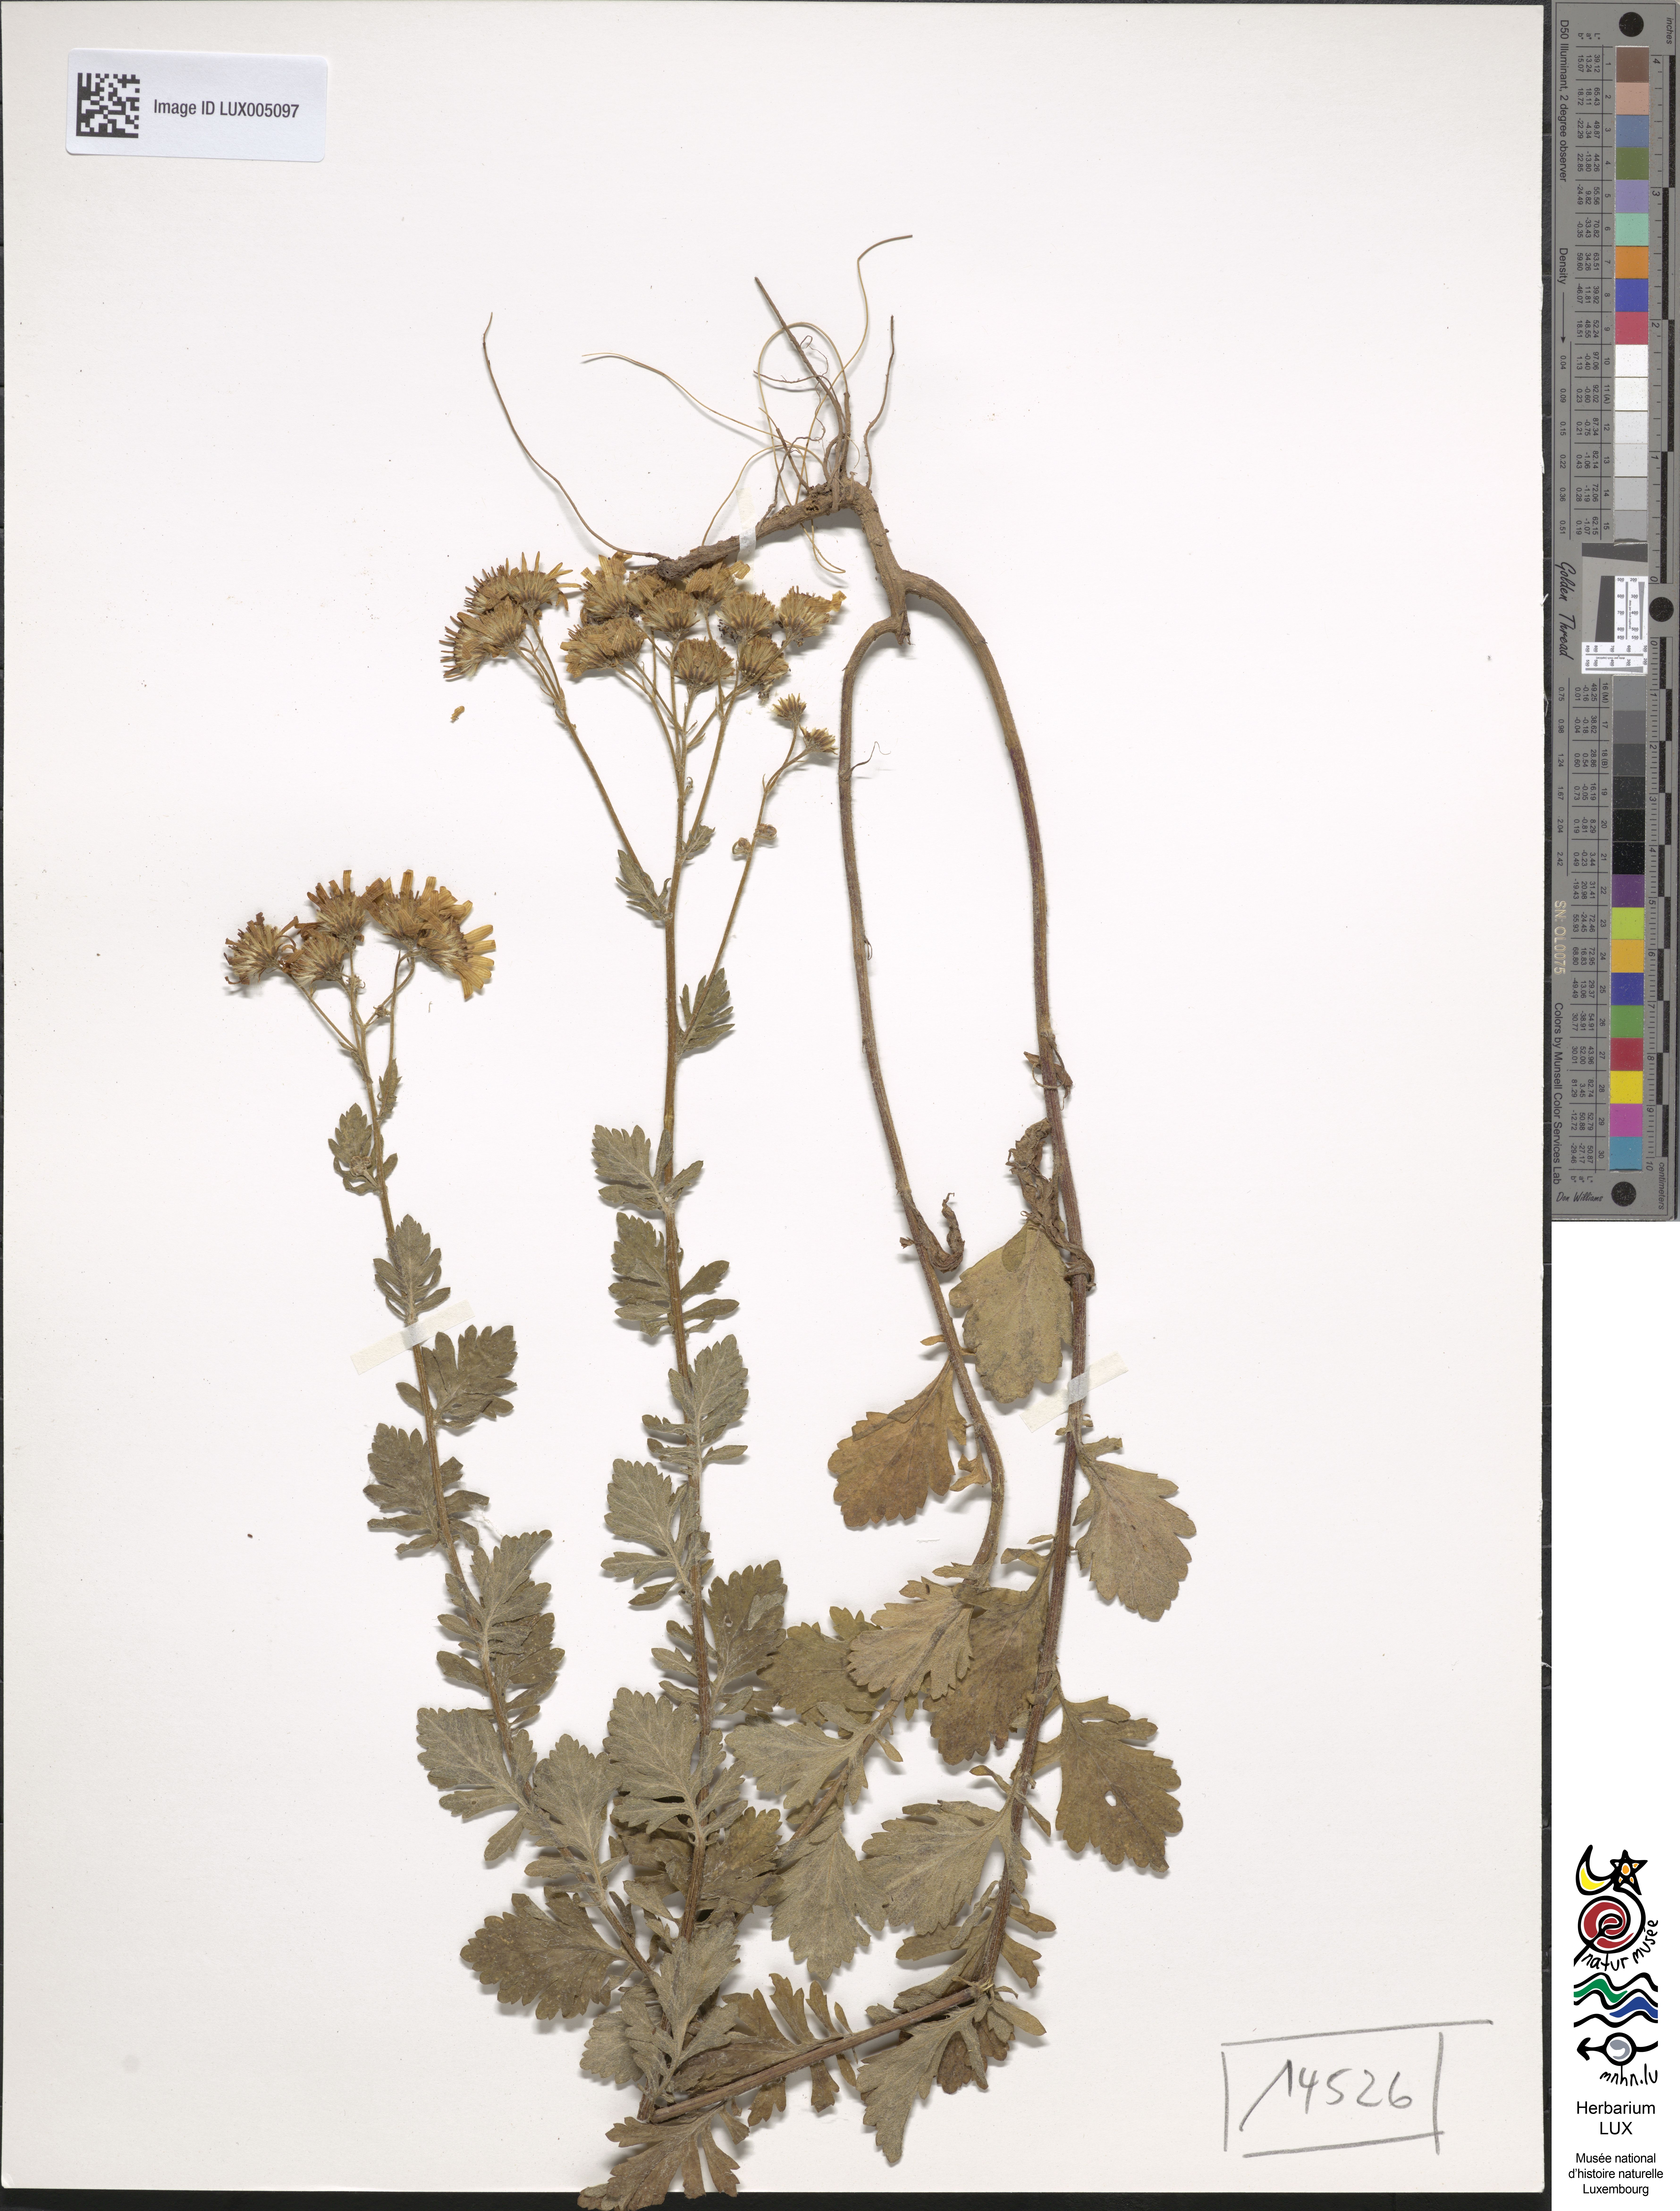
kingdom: Plantae
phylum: Tracheophyta
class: Magnoliopsida
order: Asterales
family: Asteraceae
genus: Jacobaea
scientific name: Jacobaea erucifolia
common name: Hoary ragwort
